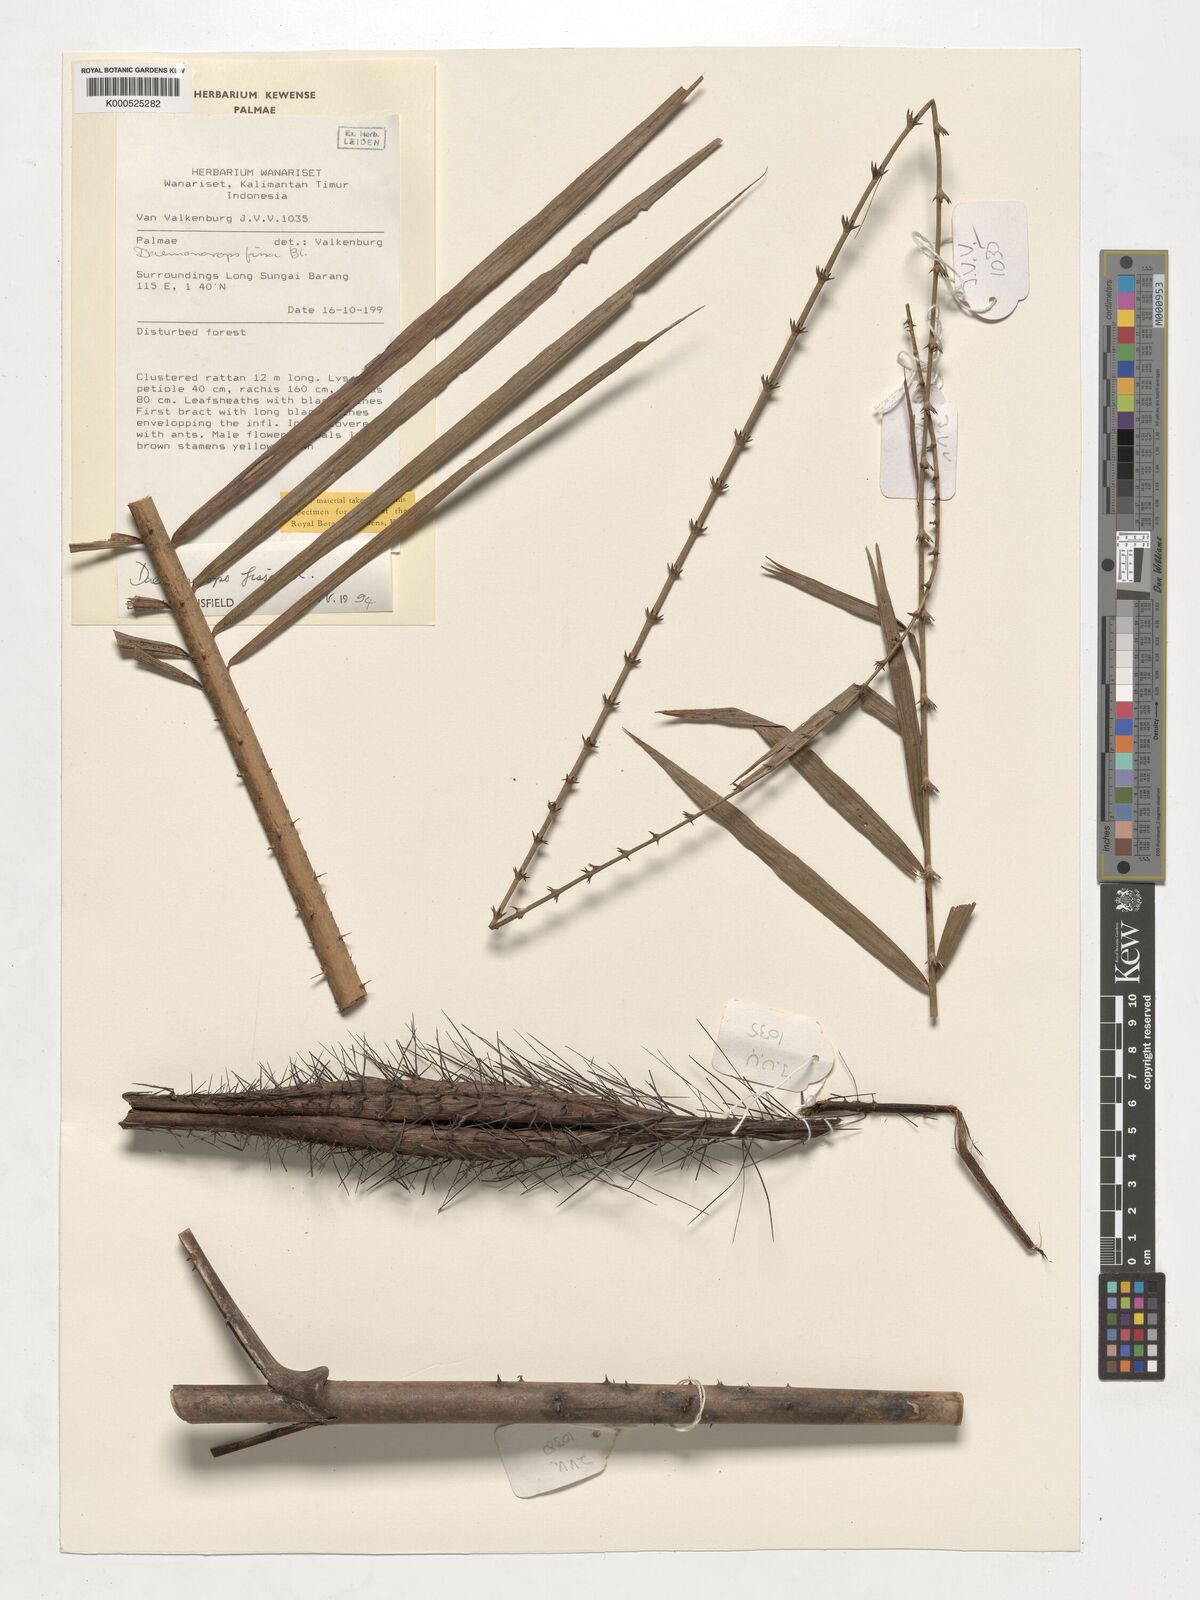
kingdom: Plantae
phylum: Tracheophyta
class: Liliopsida
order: Arecales
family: Arecaceae
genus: Calamus
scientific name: Calamus melanochaetes
